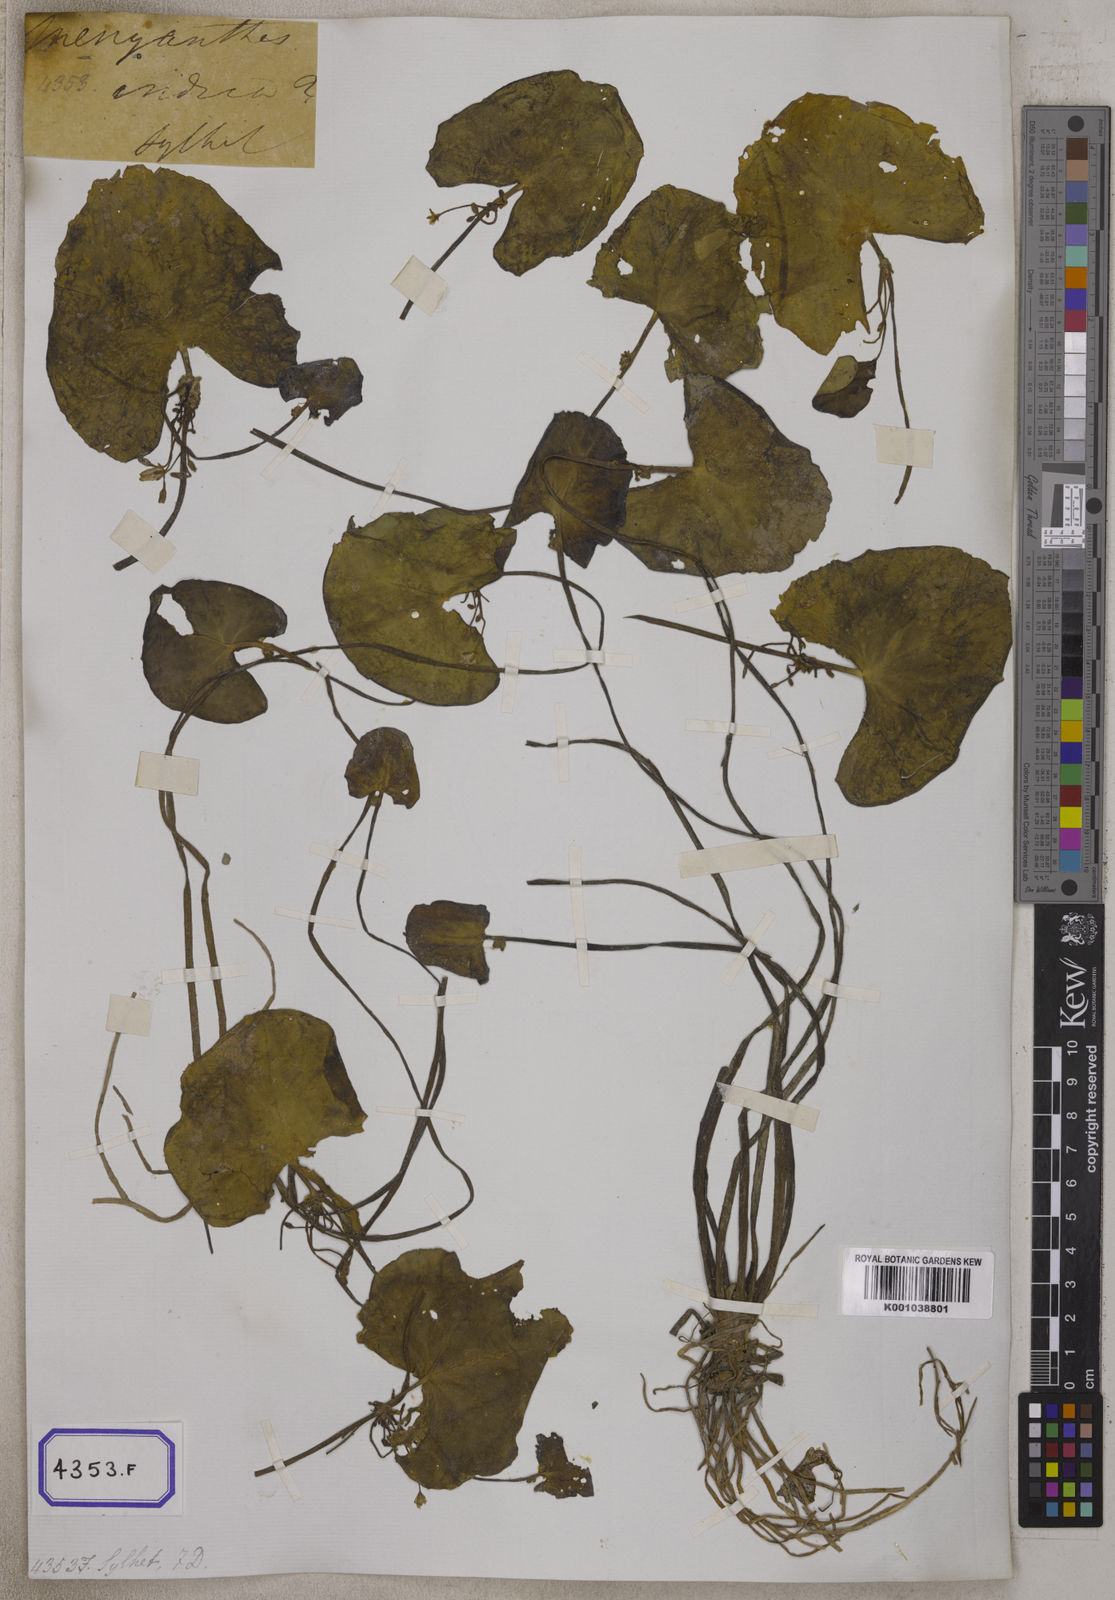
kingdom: Plantae
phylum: Tracheophyta
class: Magnoliopsida
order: Asterales
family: Menyanthaceae
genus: Nymphoides
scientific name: Nymphoides hydrophylla
